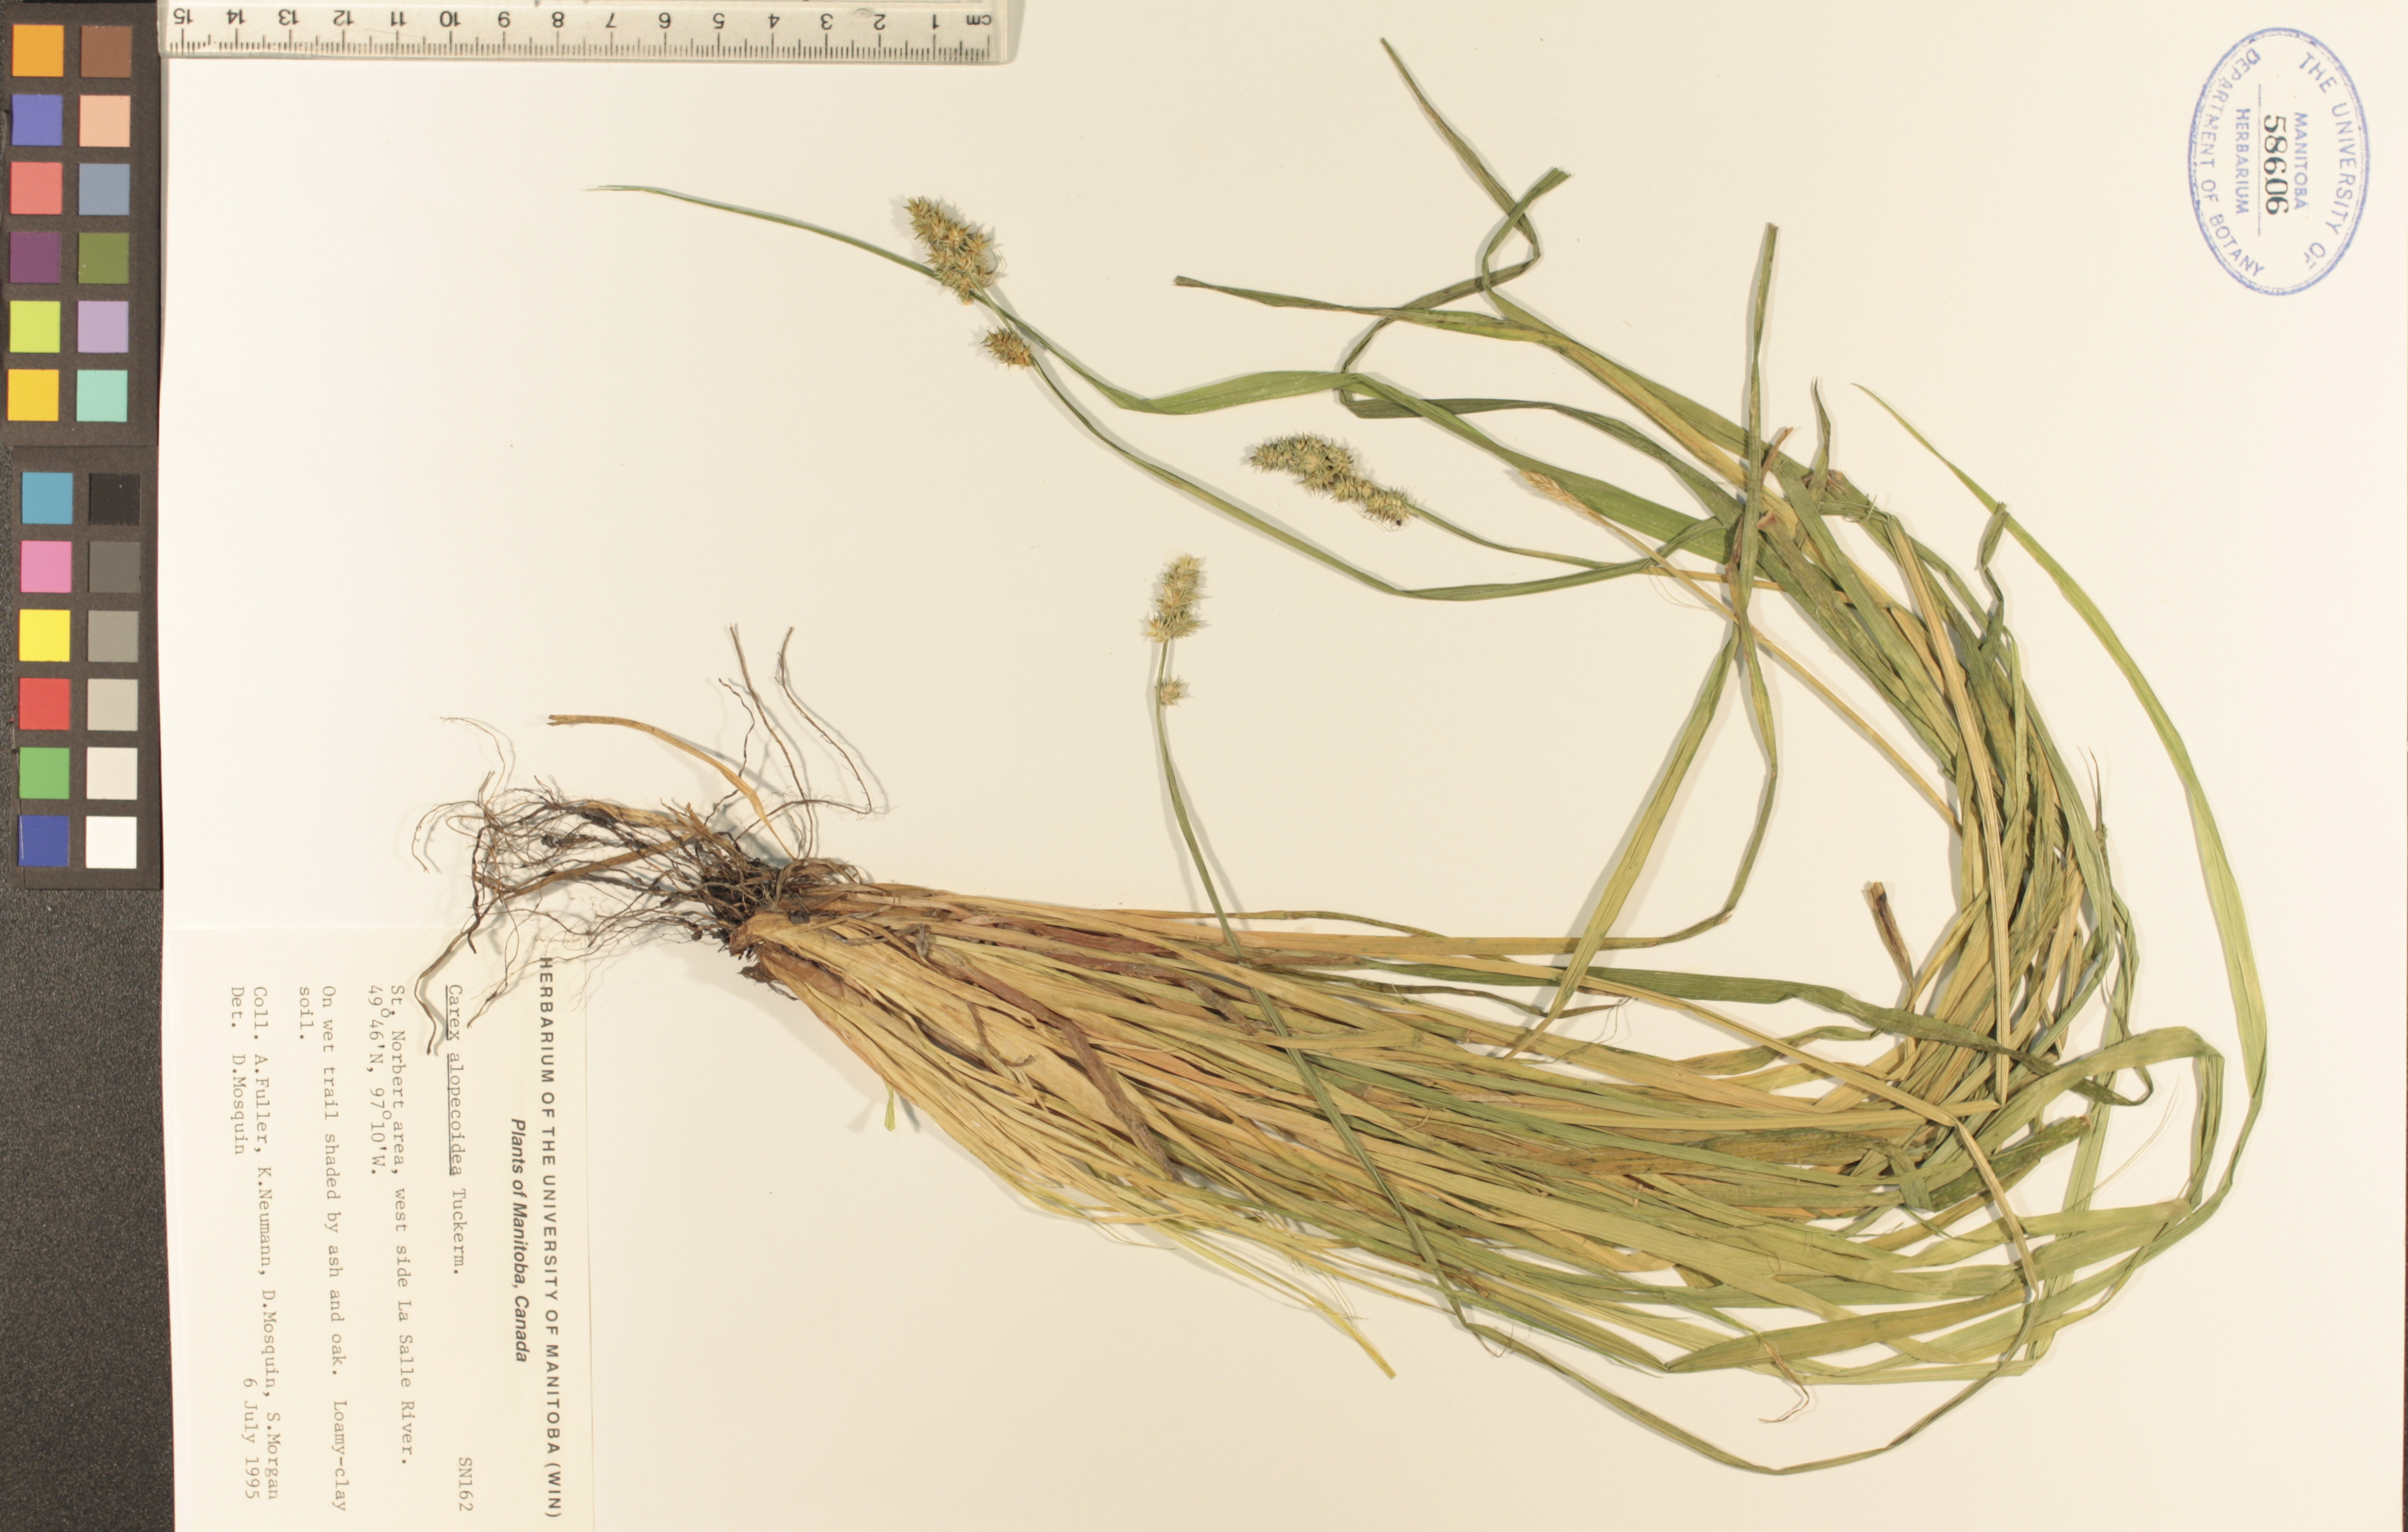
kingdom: Plantae
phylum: Tracheophyta
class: Liliopsida
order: Poales
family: Cyperaceae
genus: Carex
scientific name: Carex alopecoidea
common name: Brown-headed fox sedge
